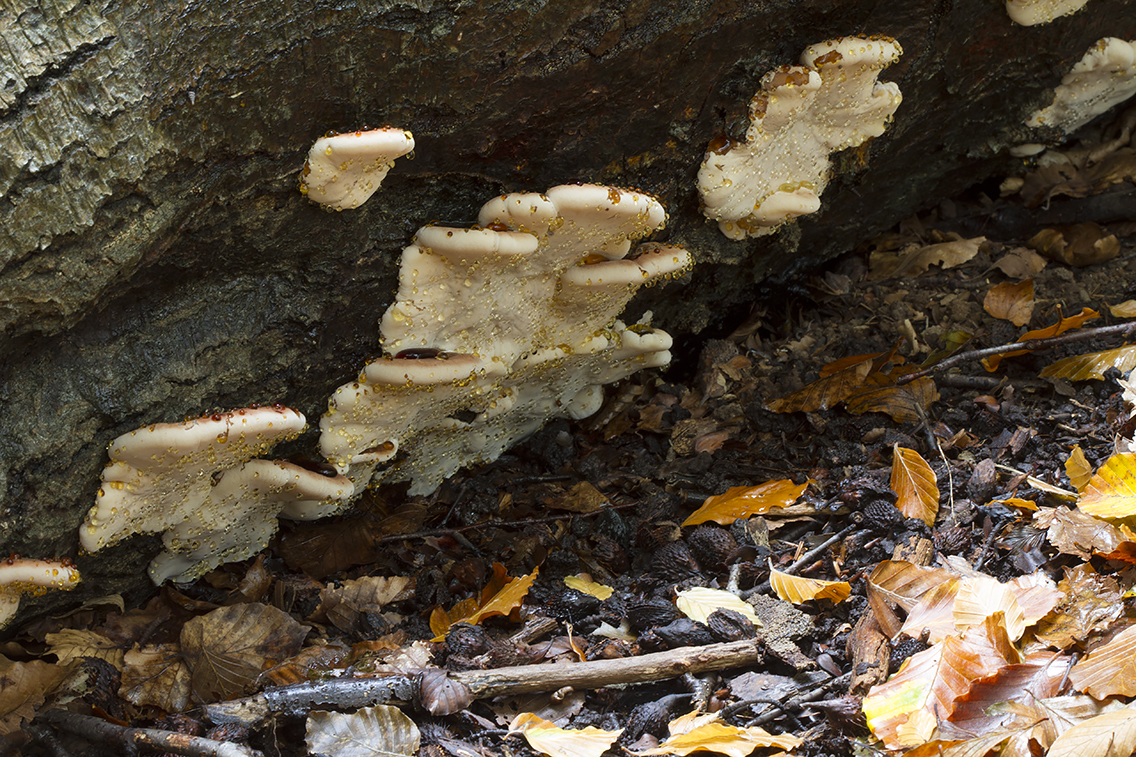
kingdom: Fungi
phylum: Basidiomycota
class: Agaricomycetes
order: Polyporales
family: Ischnodermataceae
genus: Ischnoderma
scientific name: Ischnoderma resinosum
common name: løv-tjæreporesvamp
